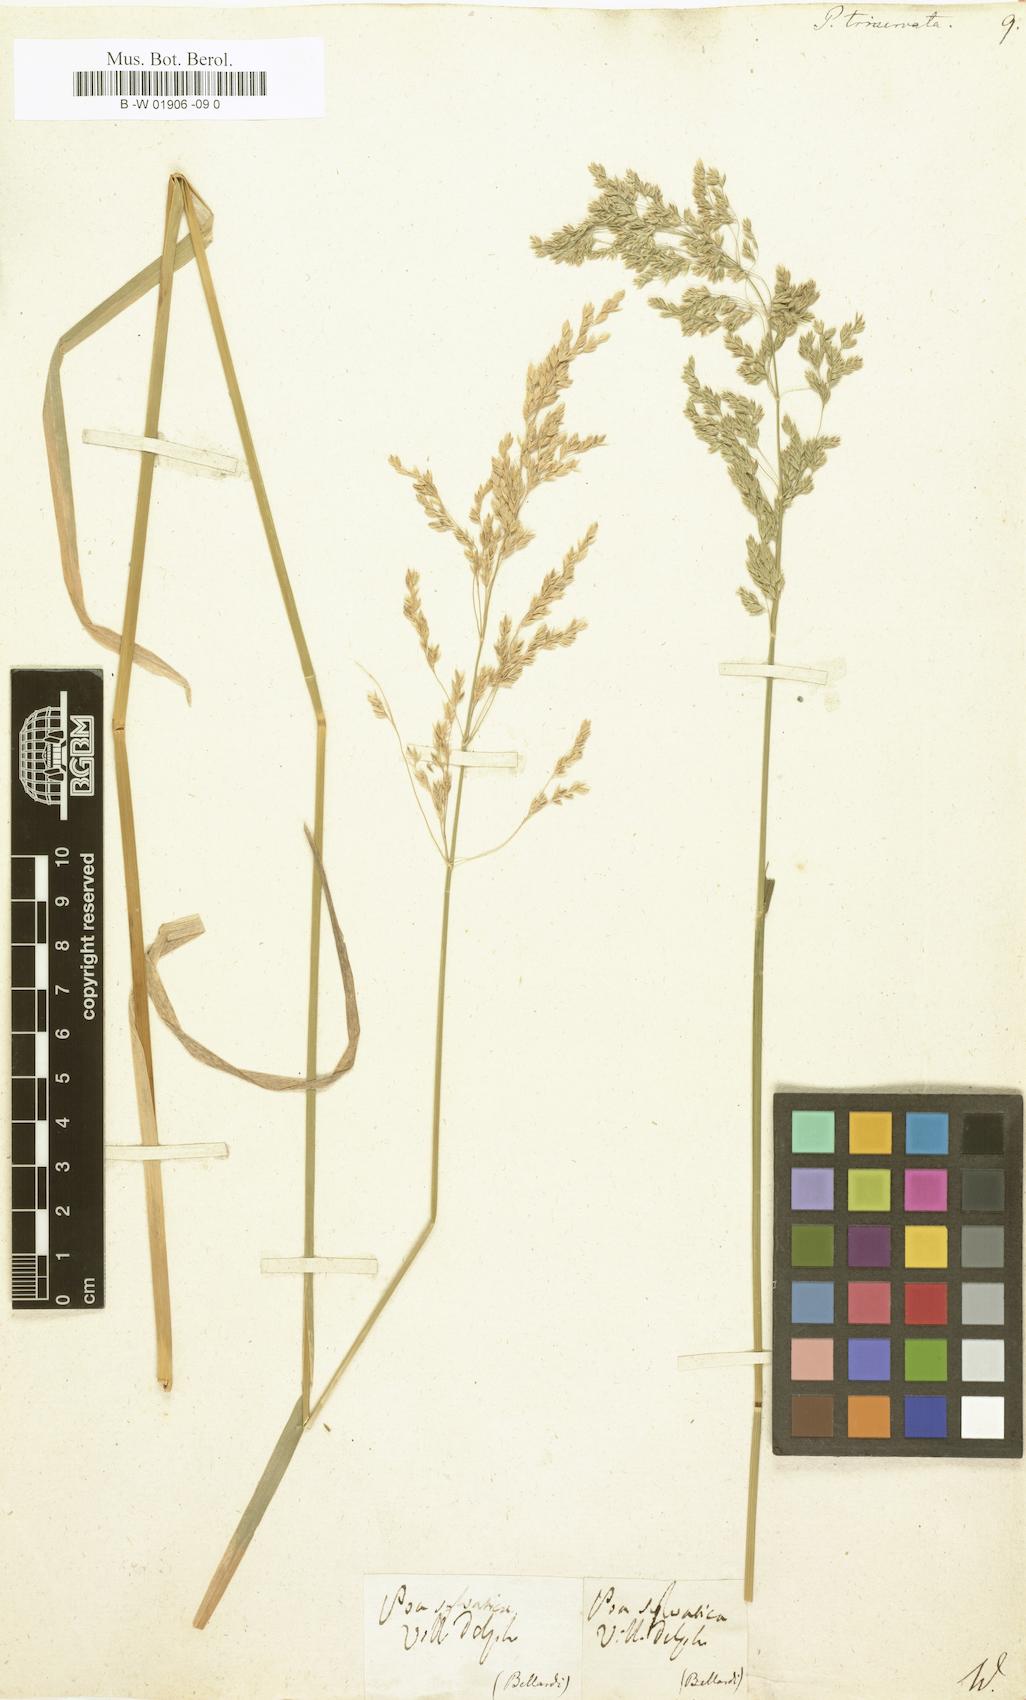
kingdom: Plantae
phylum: Tracheophyta
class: Liliopsida
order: Poales
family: Poaceae
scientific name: Poaceae
